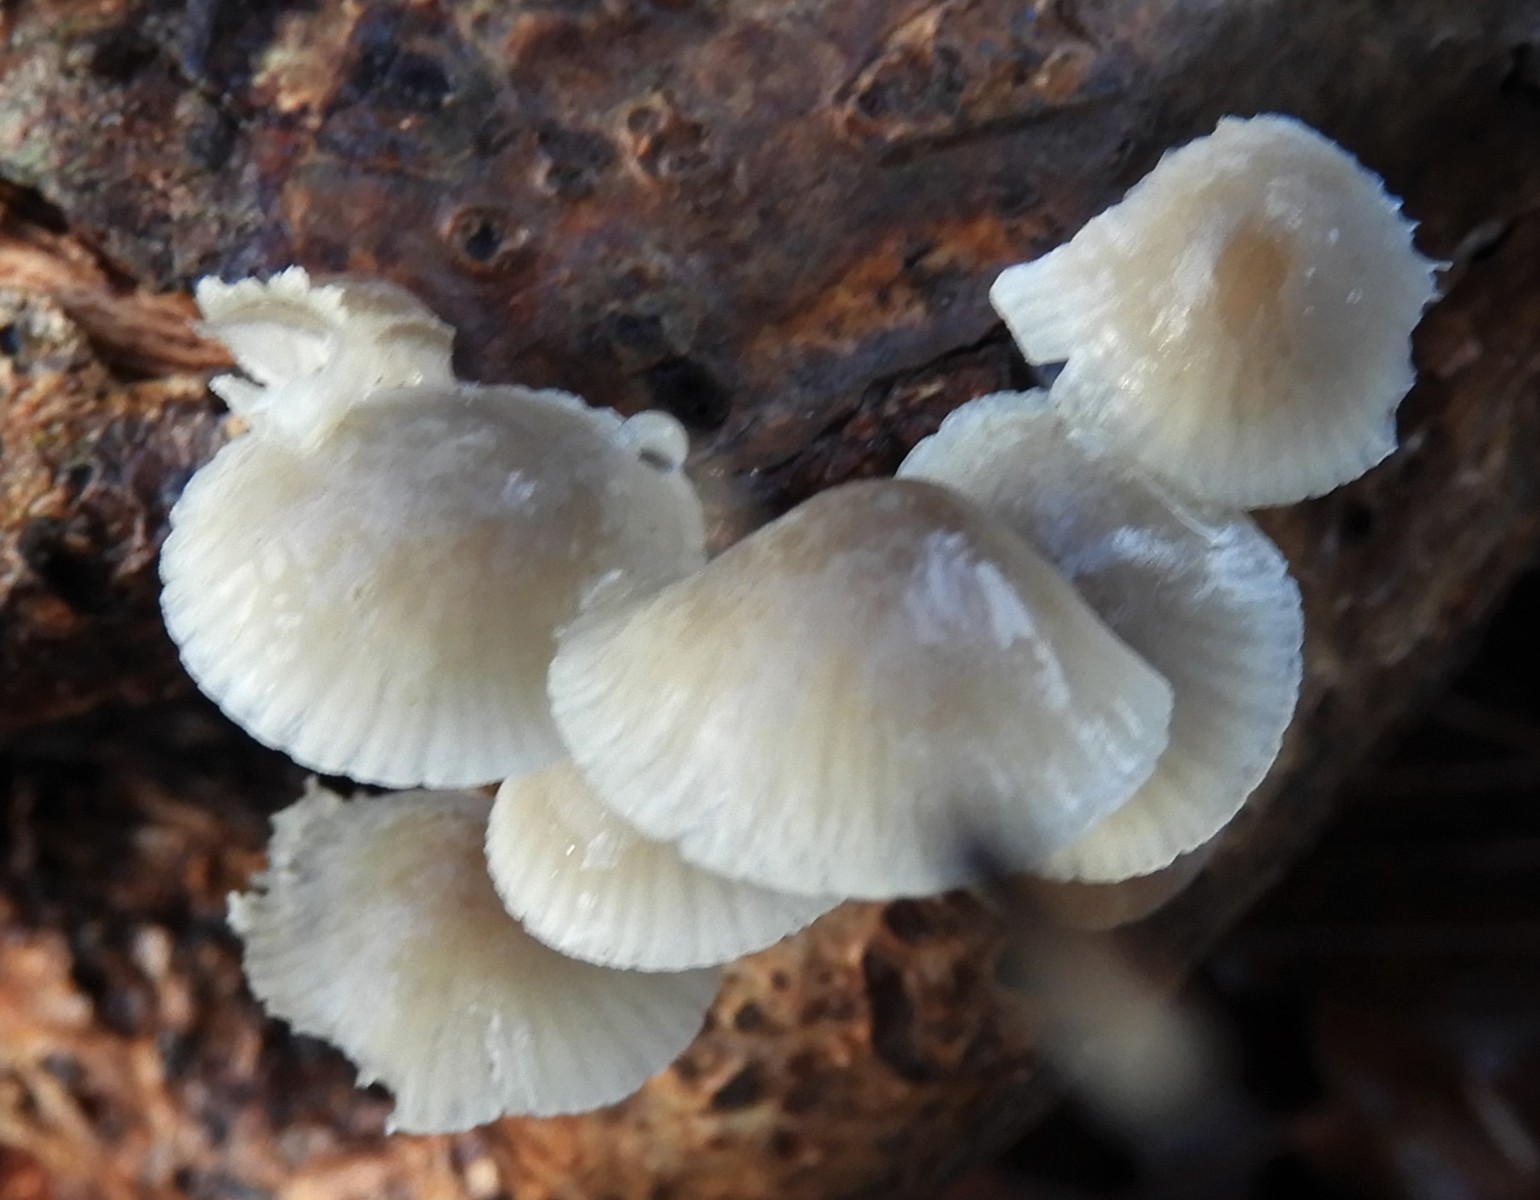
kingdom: Fungi
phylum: Basidiomycota
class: Agaricomycetes
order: Agaricales
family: Mycenaceae
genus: Mycena
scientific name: Mycena galericulata
